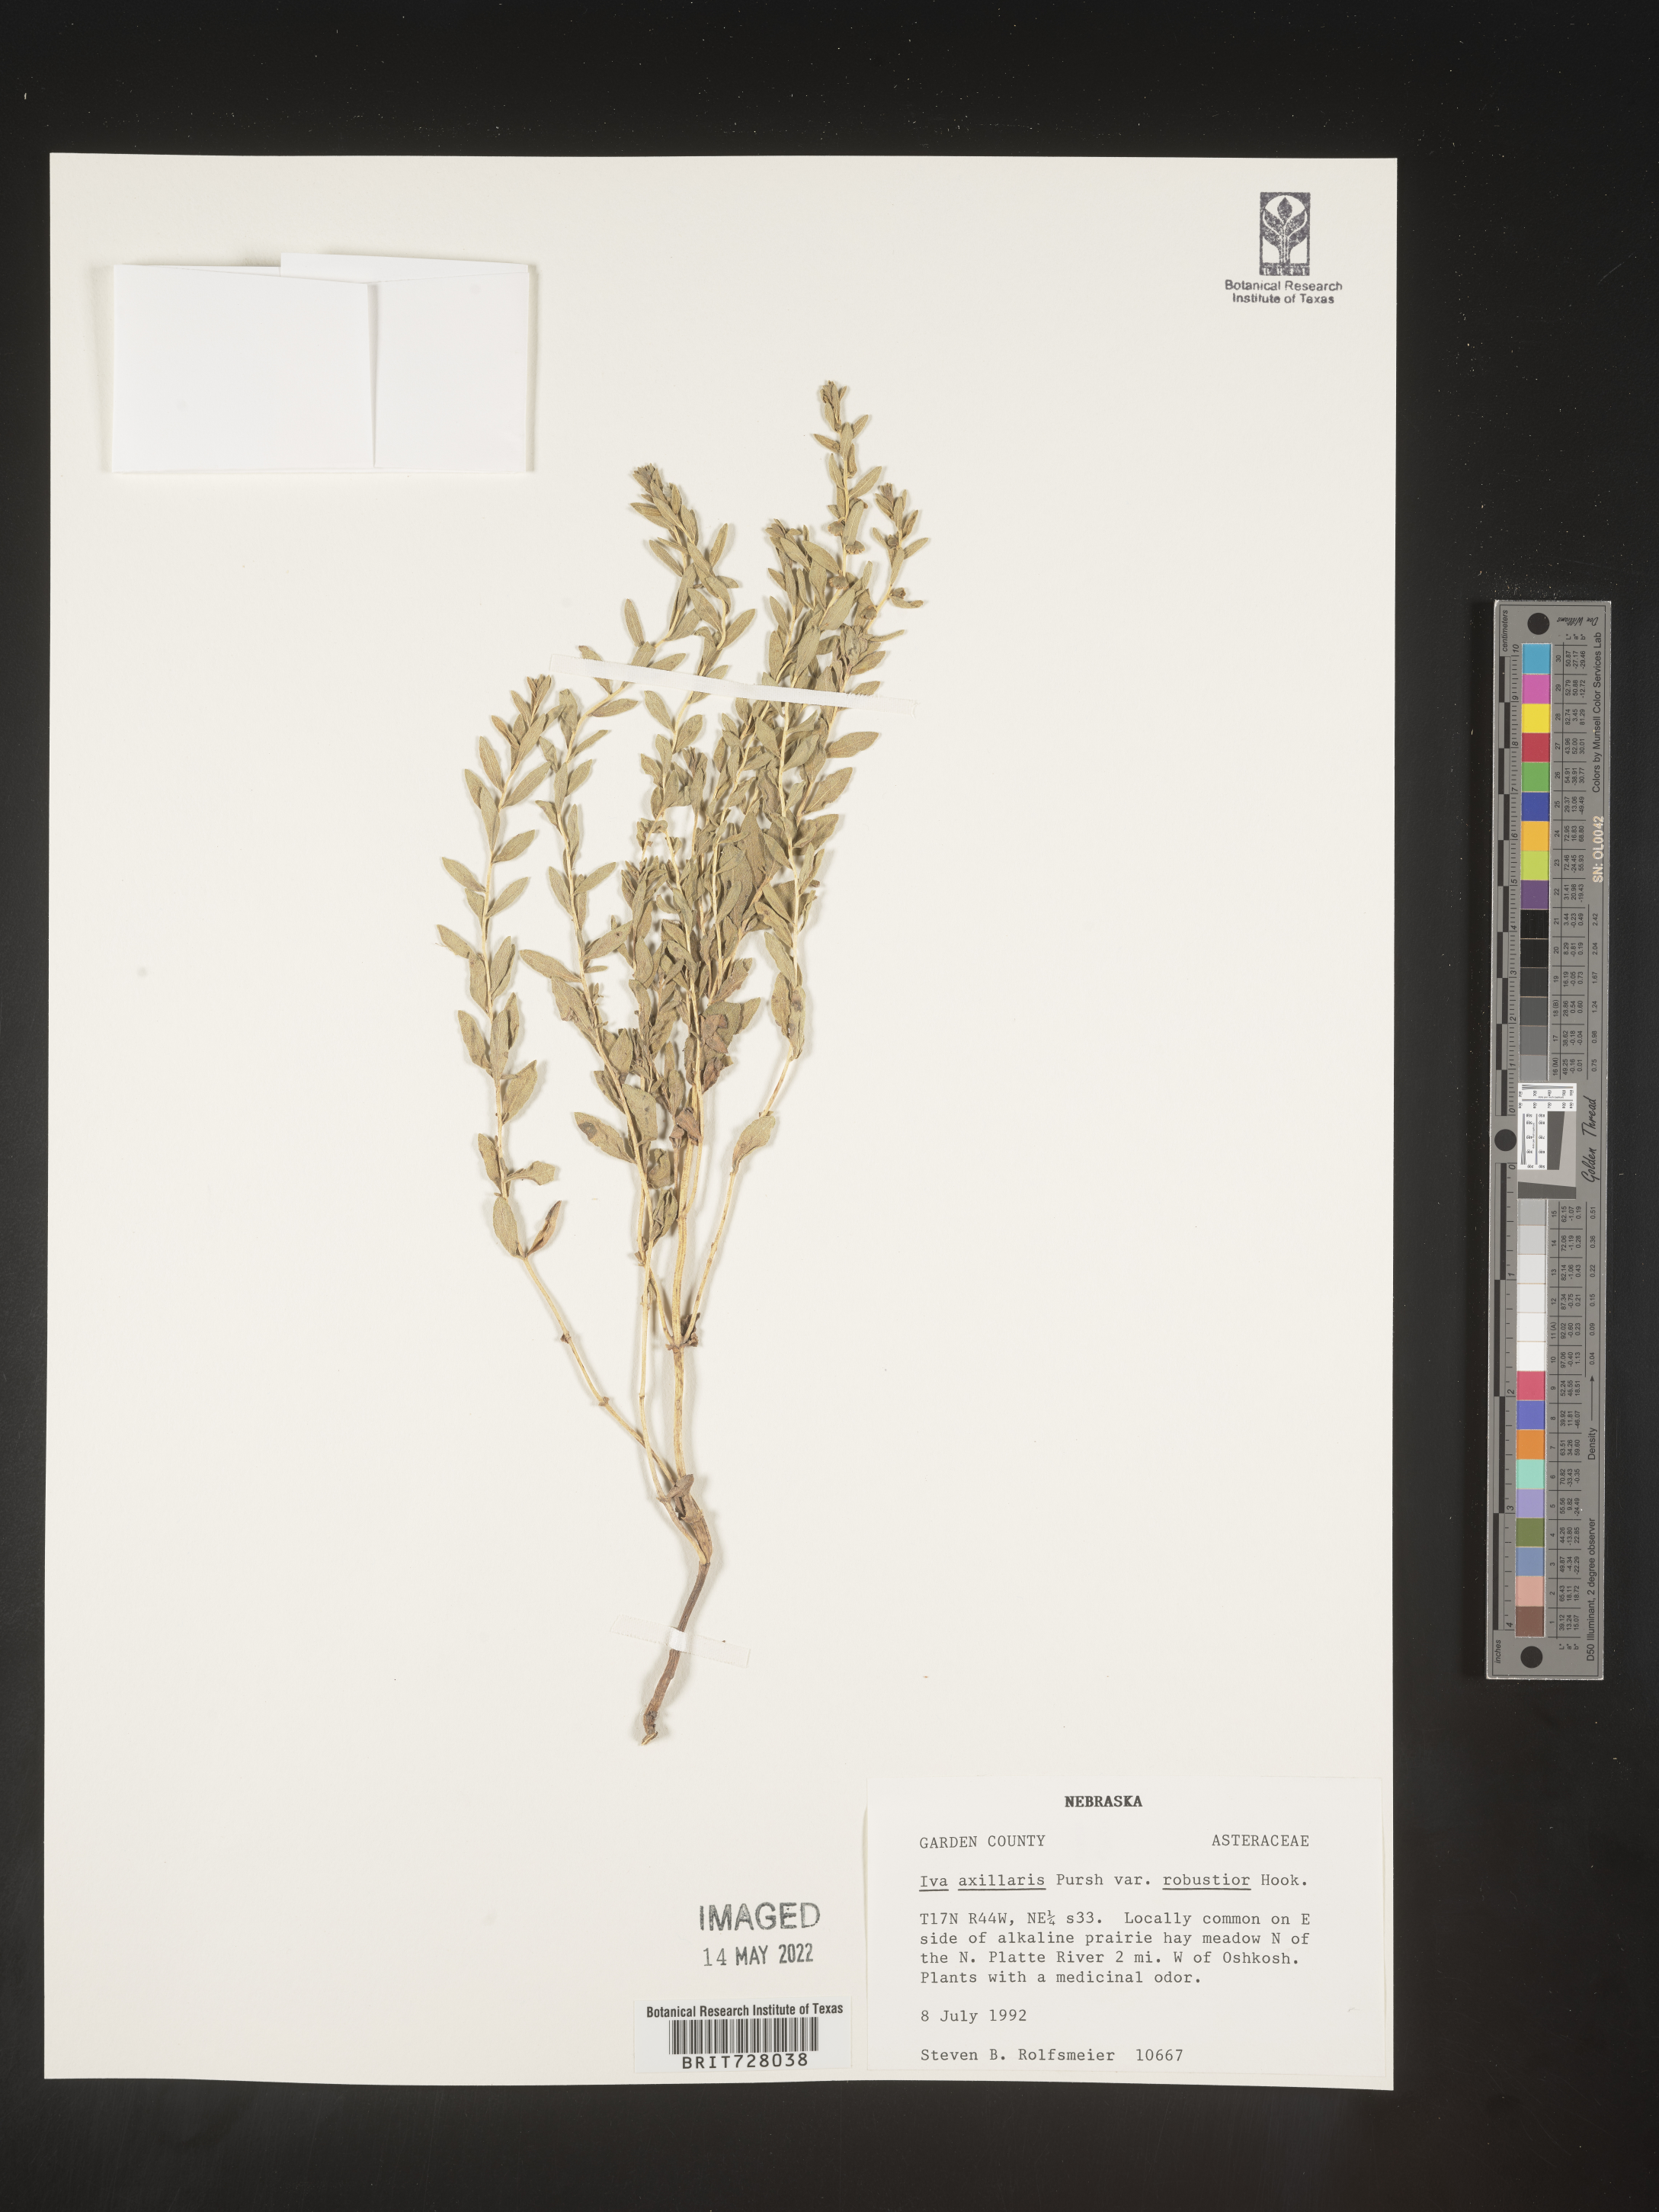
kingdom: Plantae
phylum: Tracheophyta
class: Magnoliopsida
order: Asterales
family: Asteraceae
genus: Iva
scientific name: Iva axillaris
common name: Poverty sumpweed
